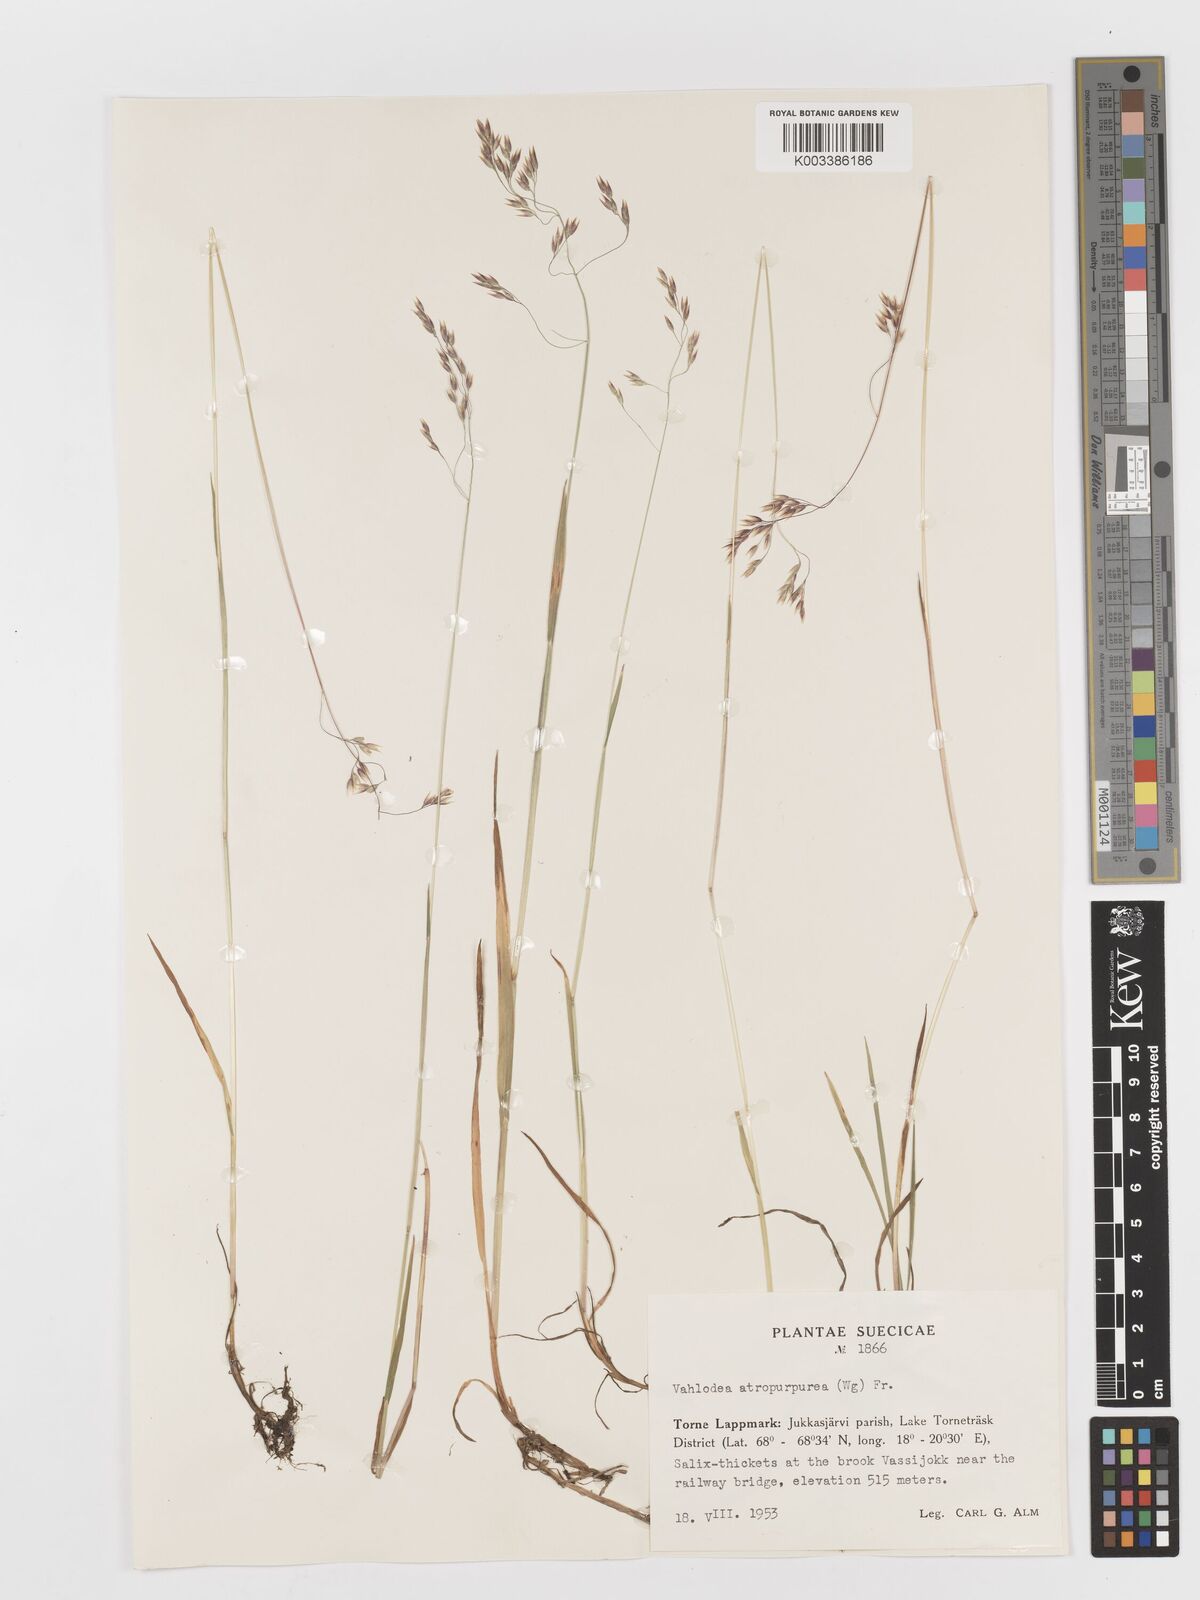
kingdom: Plantae
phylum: Tracheophyta
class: Liliopsida
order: Poales
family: Poaceae
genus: Vahlodea
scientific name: Vahlodea atropurpurea
